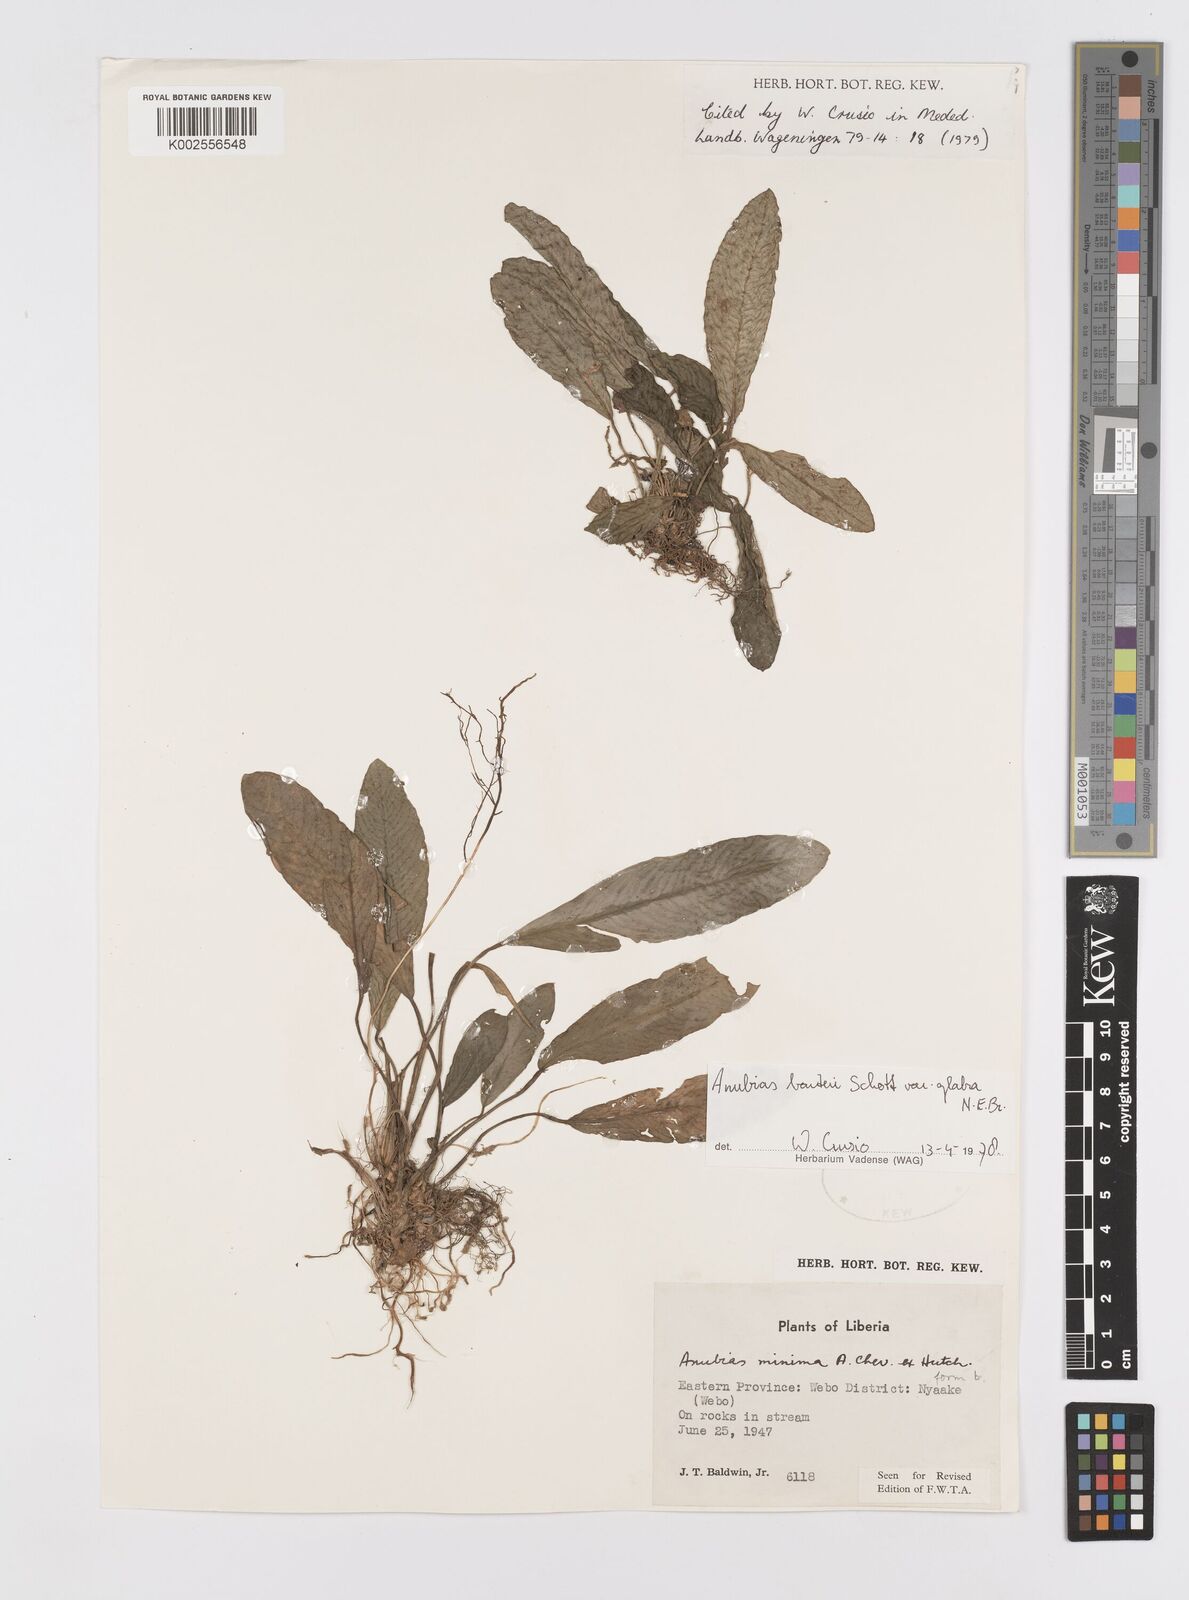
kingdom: Plantae
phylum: Tracheophyta
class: Liliopsida
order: Alismatales
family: Araceae
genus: Anubias
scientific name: Anubias barteri
